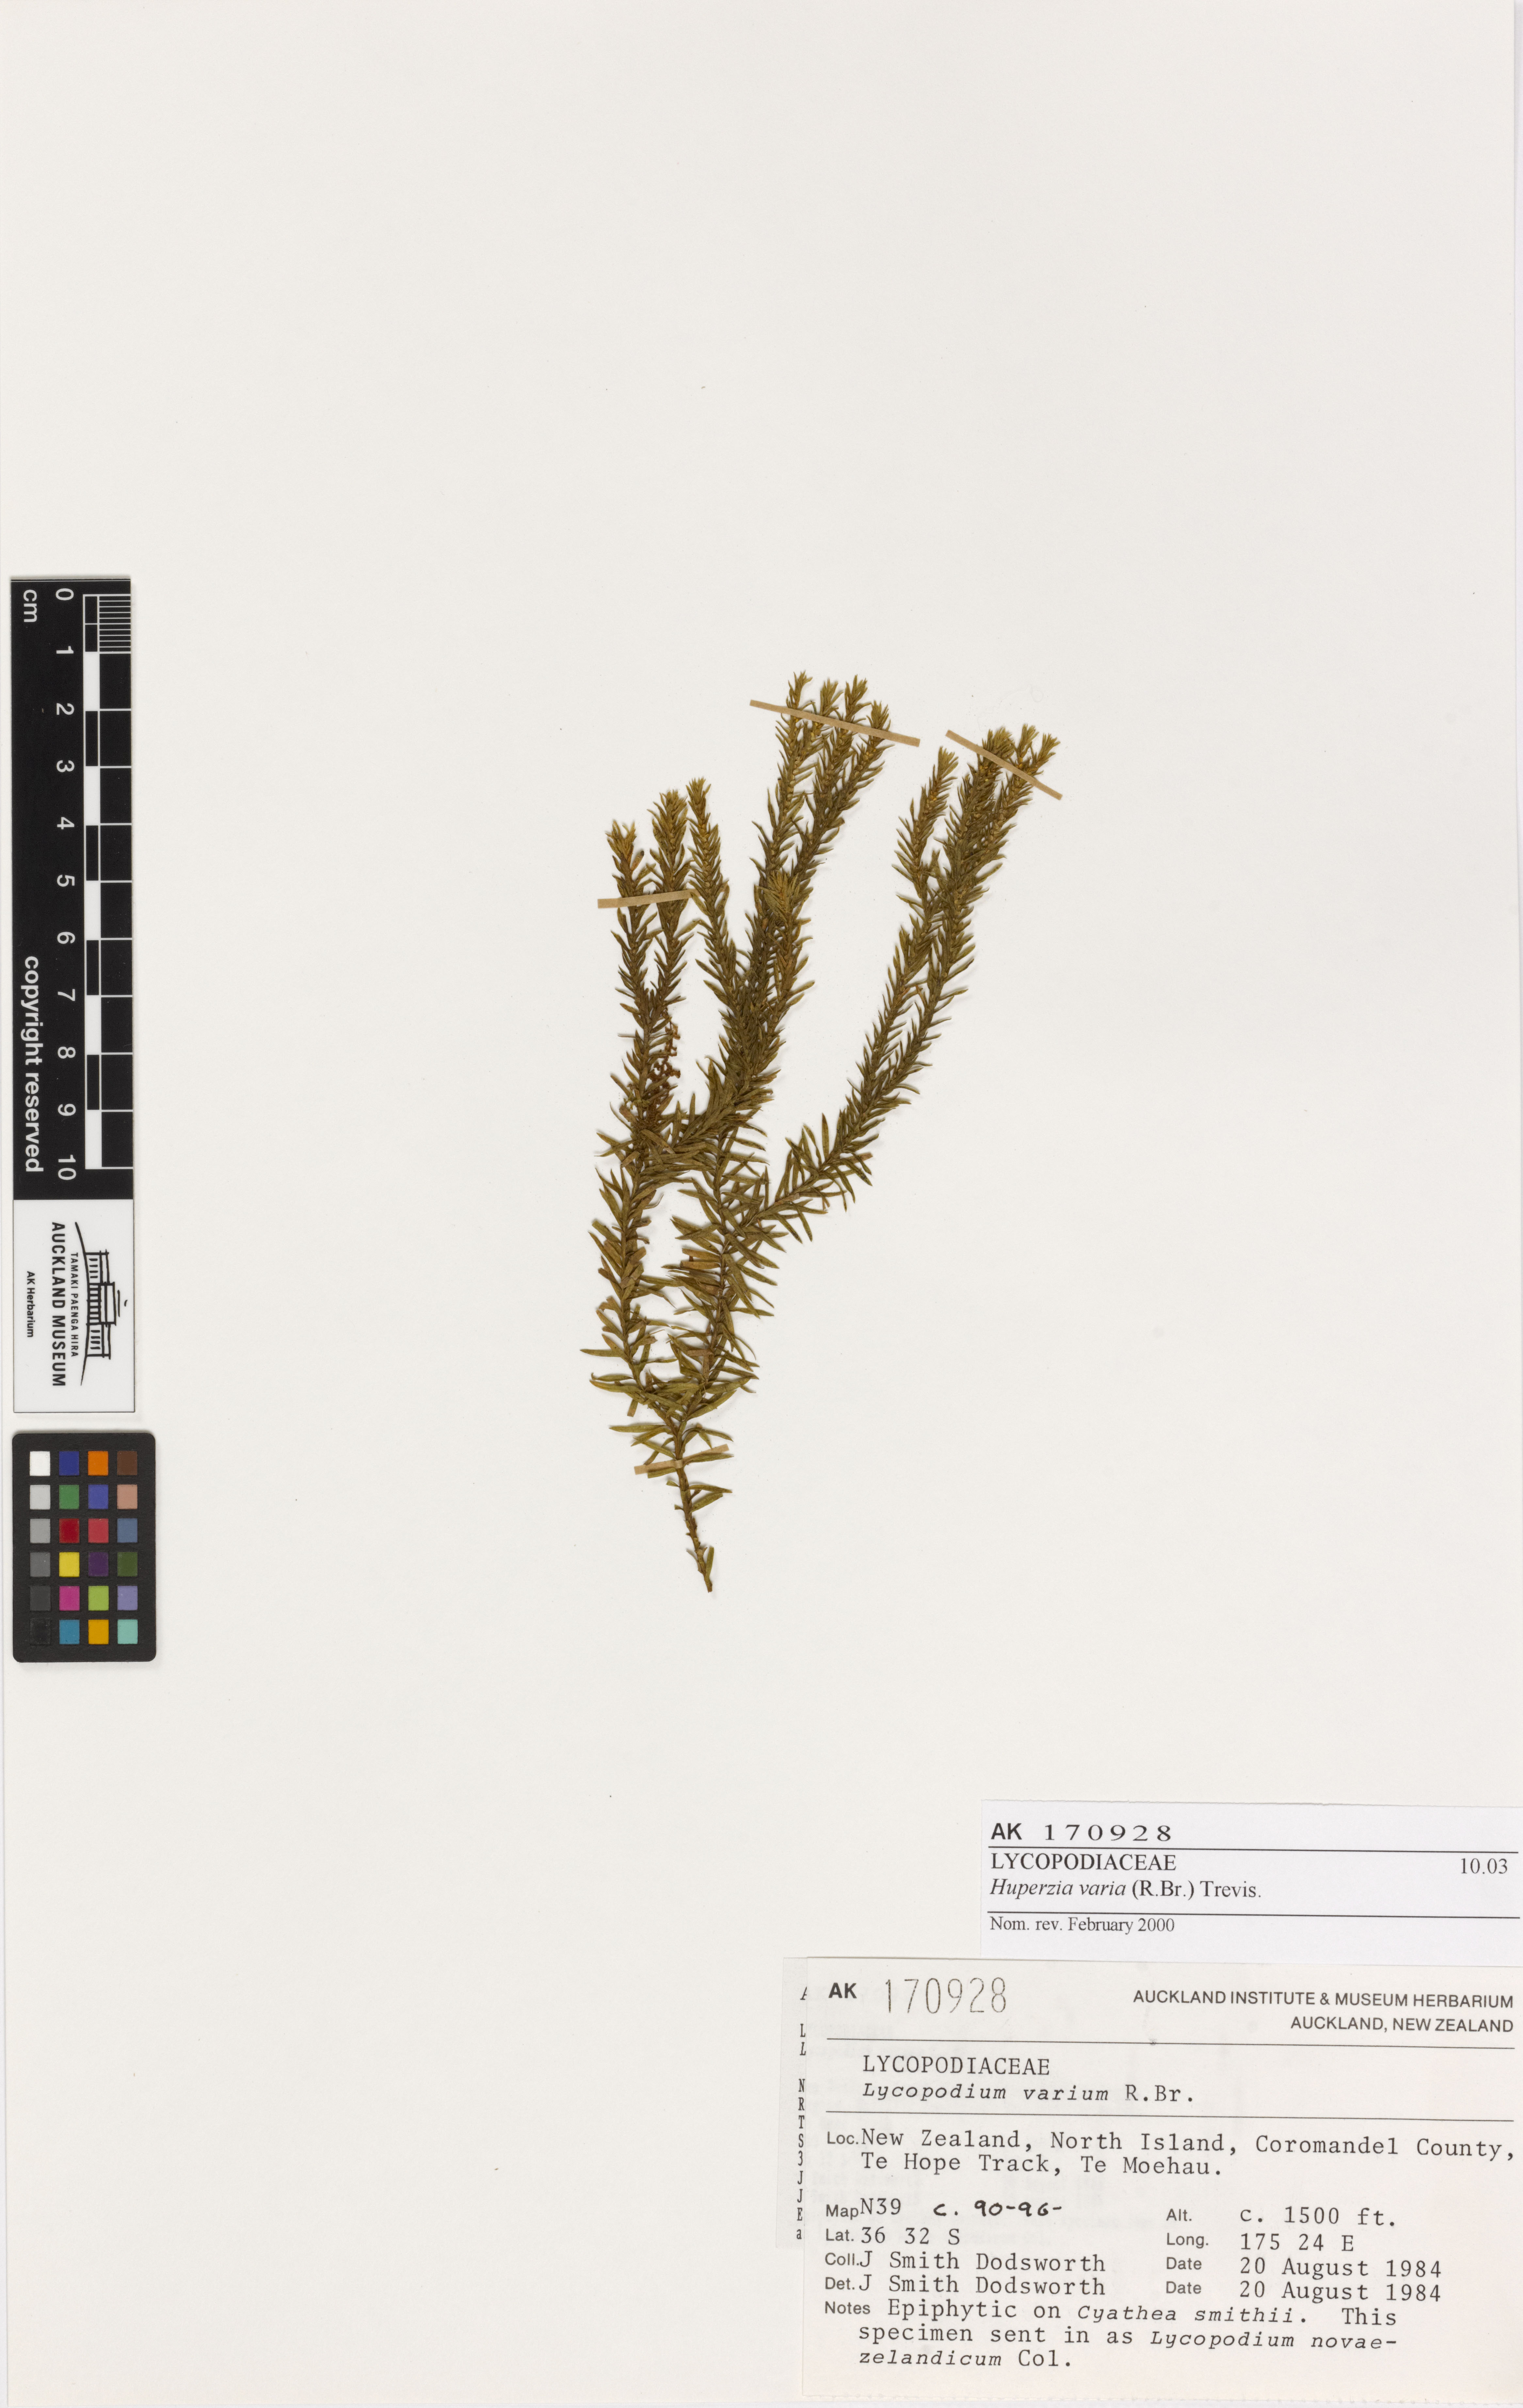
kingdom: Plantae
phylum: Tracheophyta
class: Lycopodiopsida
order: Lycopodiales
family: Lycopodiaceae
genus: Phlegmariurus
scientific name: Phlegmariurus varius
